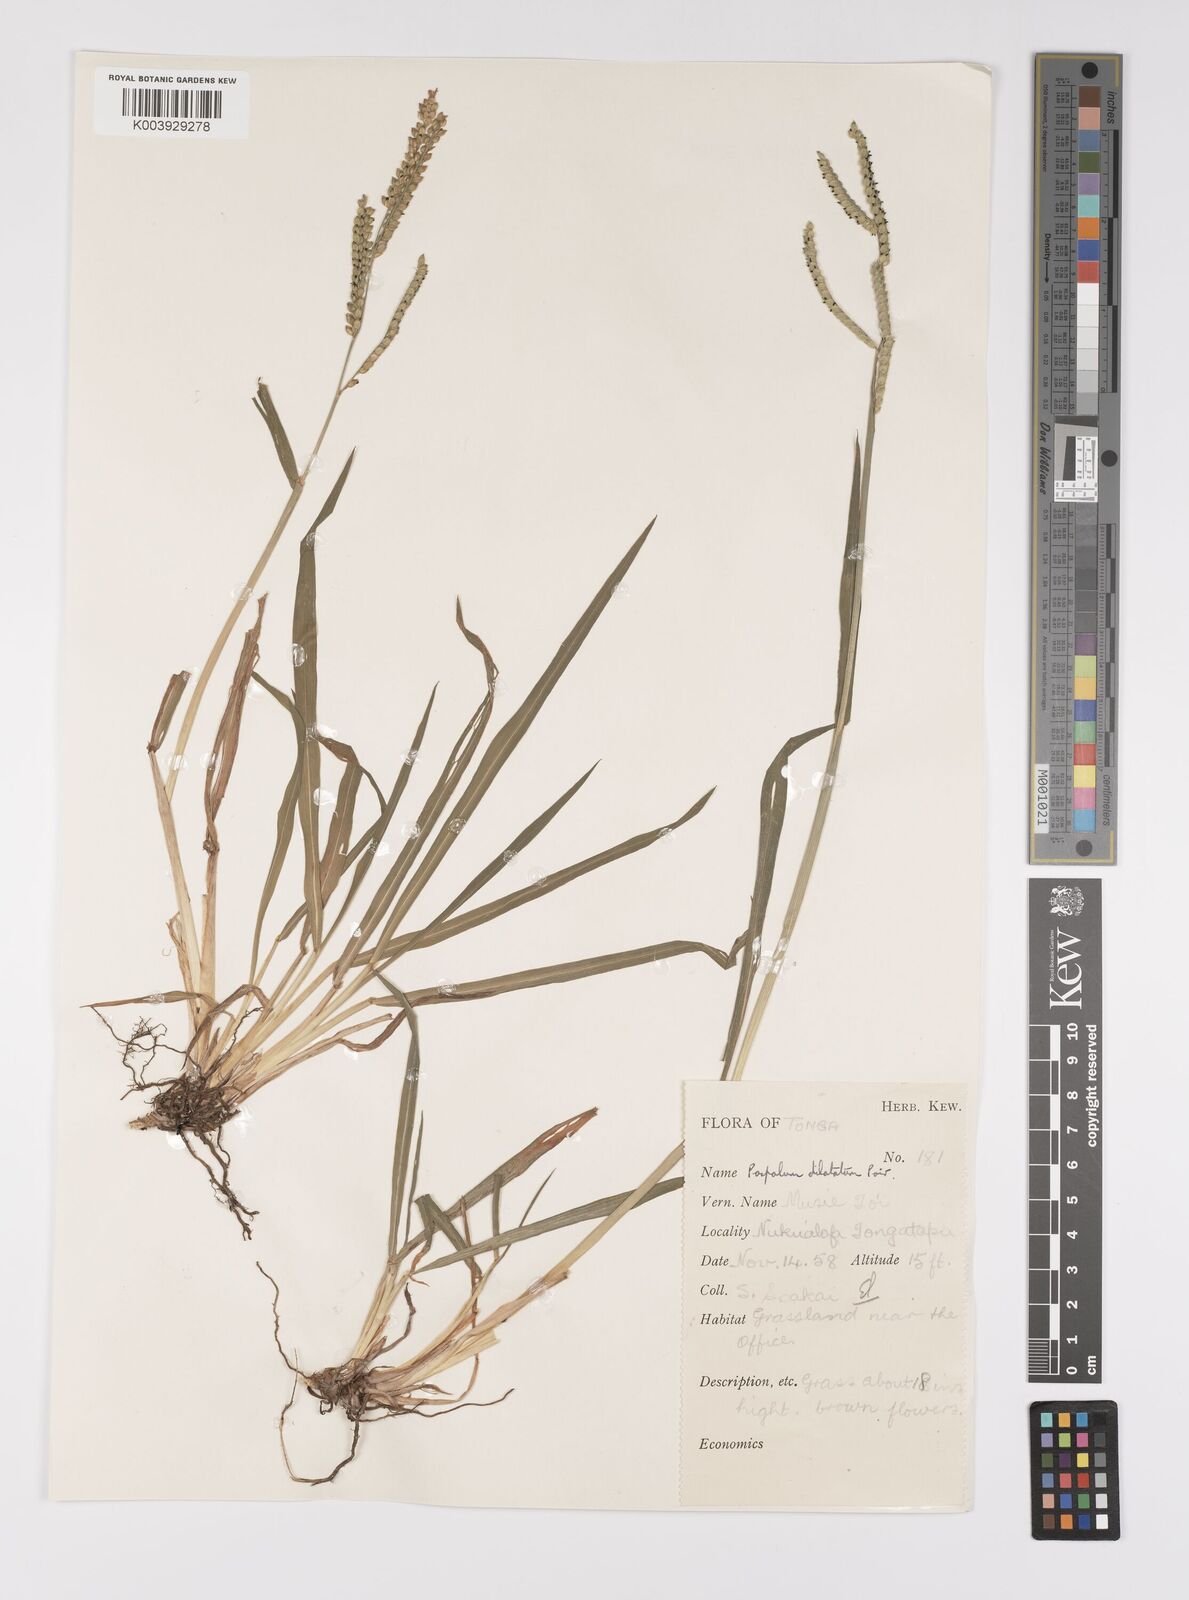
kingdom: Plantae
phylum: Tracheophyta
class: Liliopsida
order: Poales
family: Poaceae
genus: Paspalum
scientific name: Paspalum dilatatum
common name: Dallisgrass
